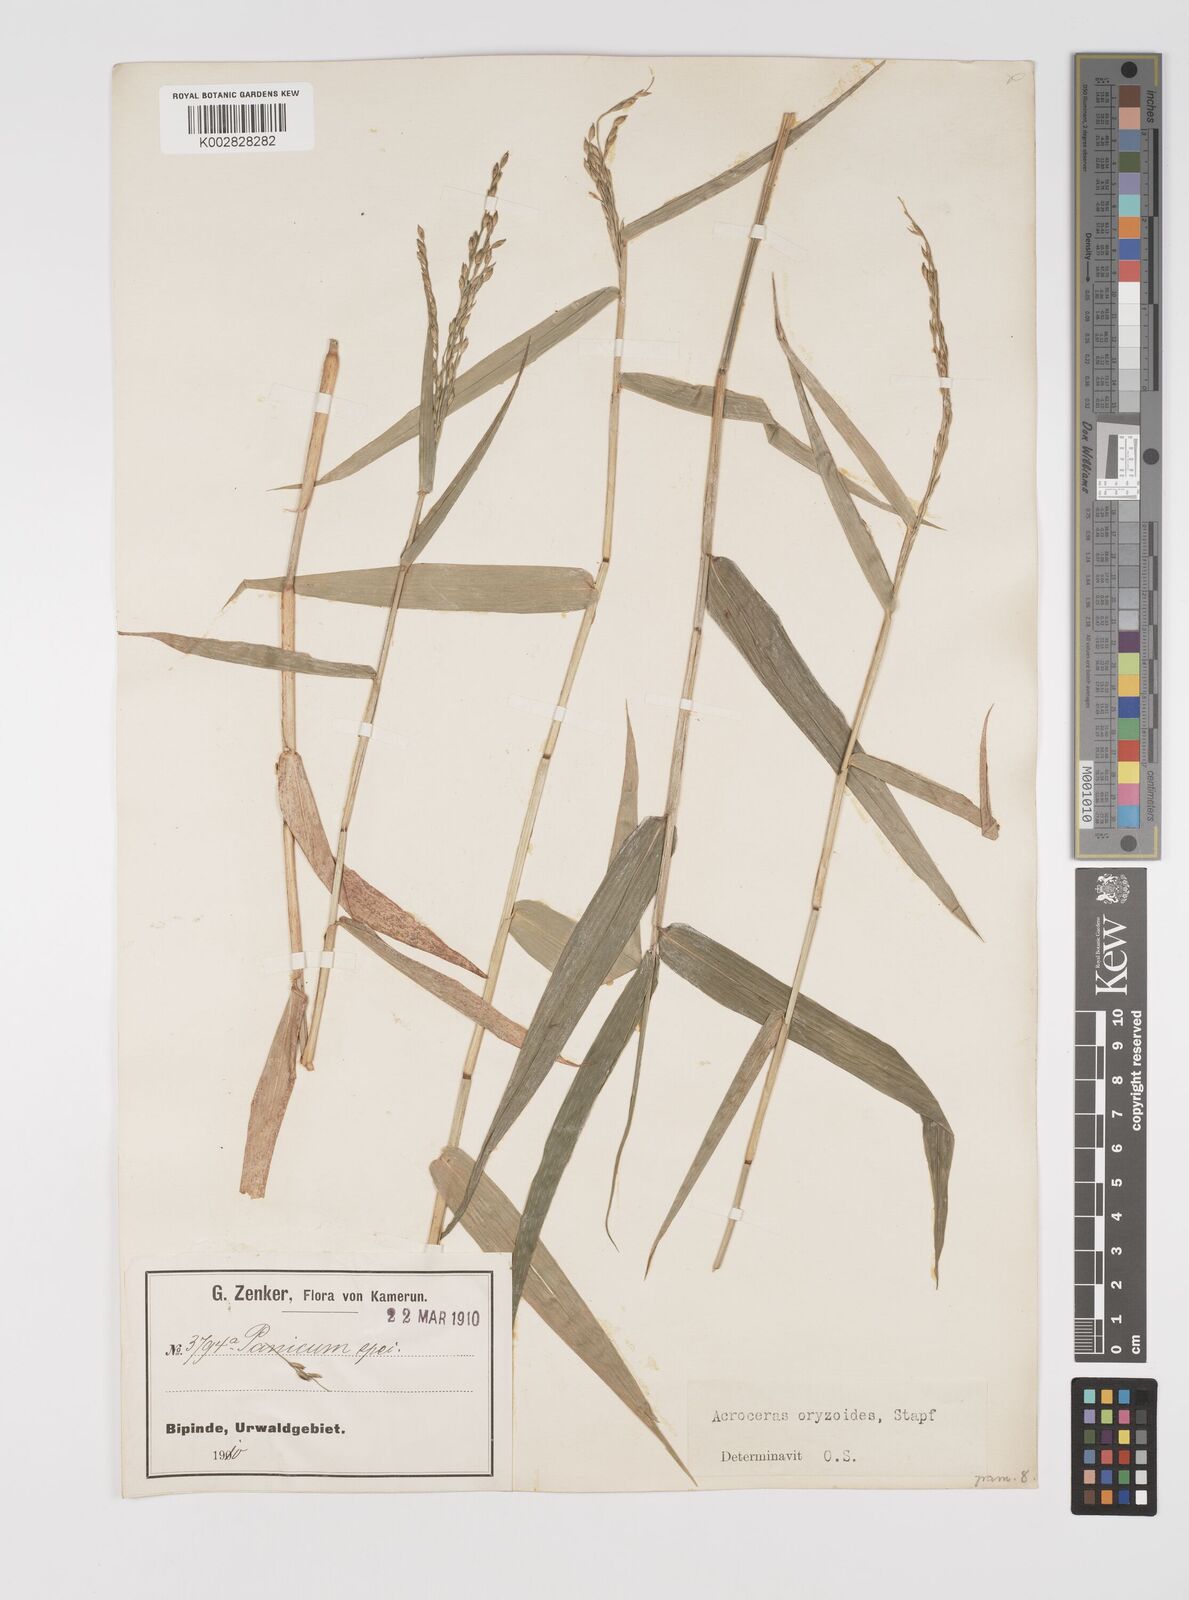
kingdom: Plantae
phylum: Tracheophyta
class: Liliopsida
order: Poales
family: Poaceae
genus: Acroceras
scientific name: Acroceras zizanioides
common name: Oat grass
